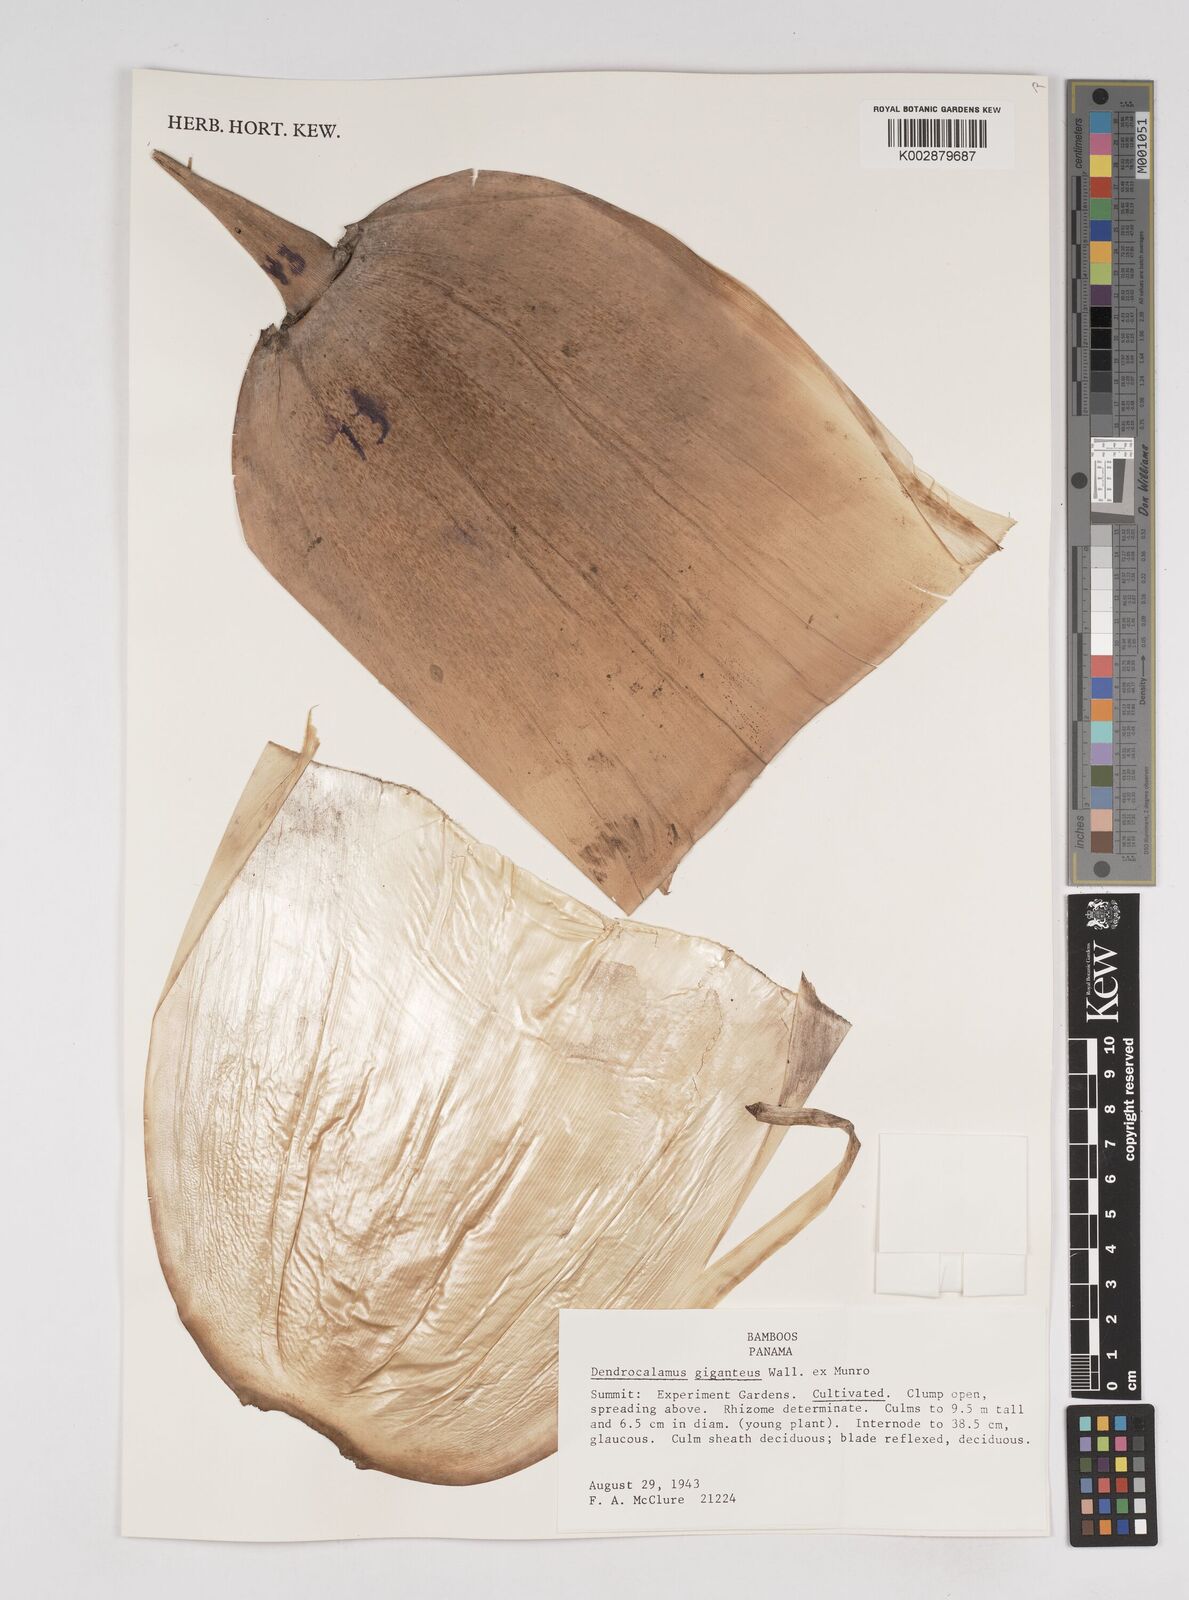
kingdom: Plantae
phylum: Tracheophyta
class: Liliopsida
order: Poales
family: Poaceae
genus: Dendrocalamus
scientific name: Dendrocalamus giganteus
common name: Giant bamboo
